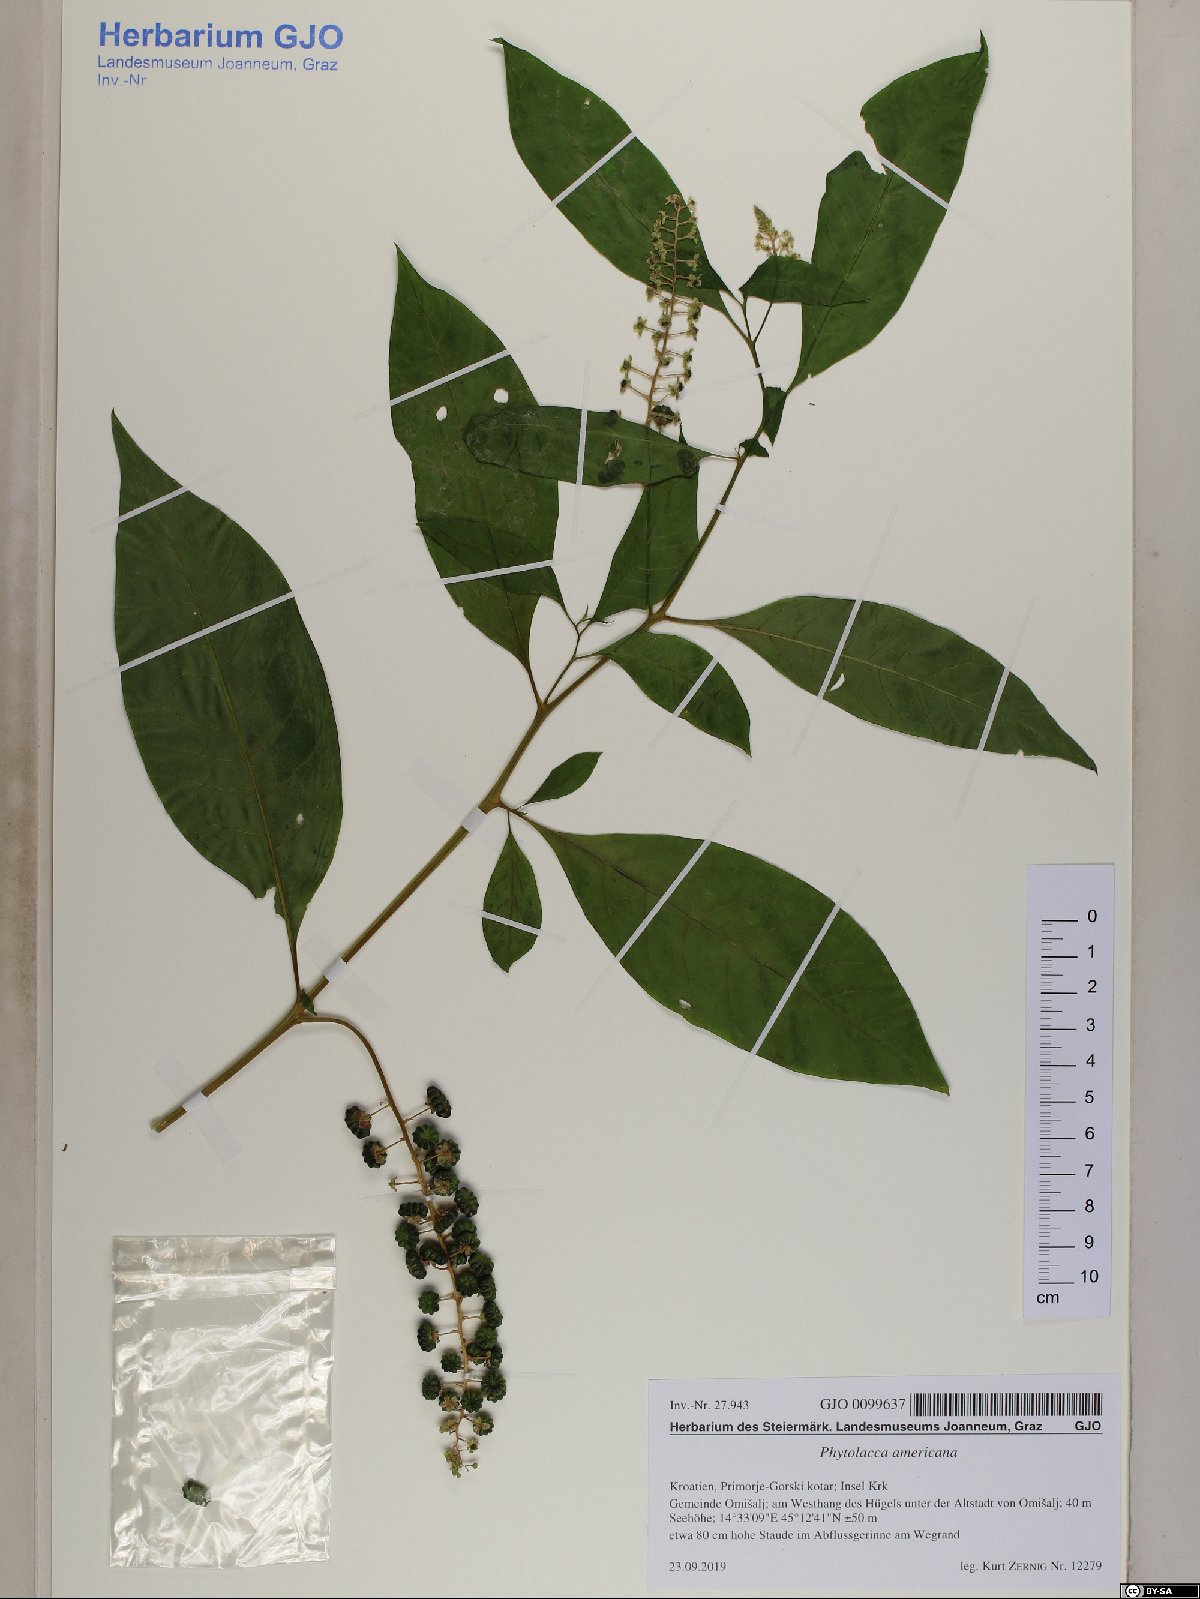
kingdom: Plantae
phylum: Tracheophyta
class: Magnoliopsida
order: Caryophyllales
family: Phytolaccaceae
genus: Phytolacca
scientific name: Phytolacca americana
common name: American pokeweed
